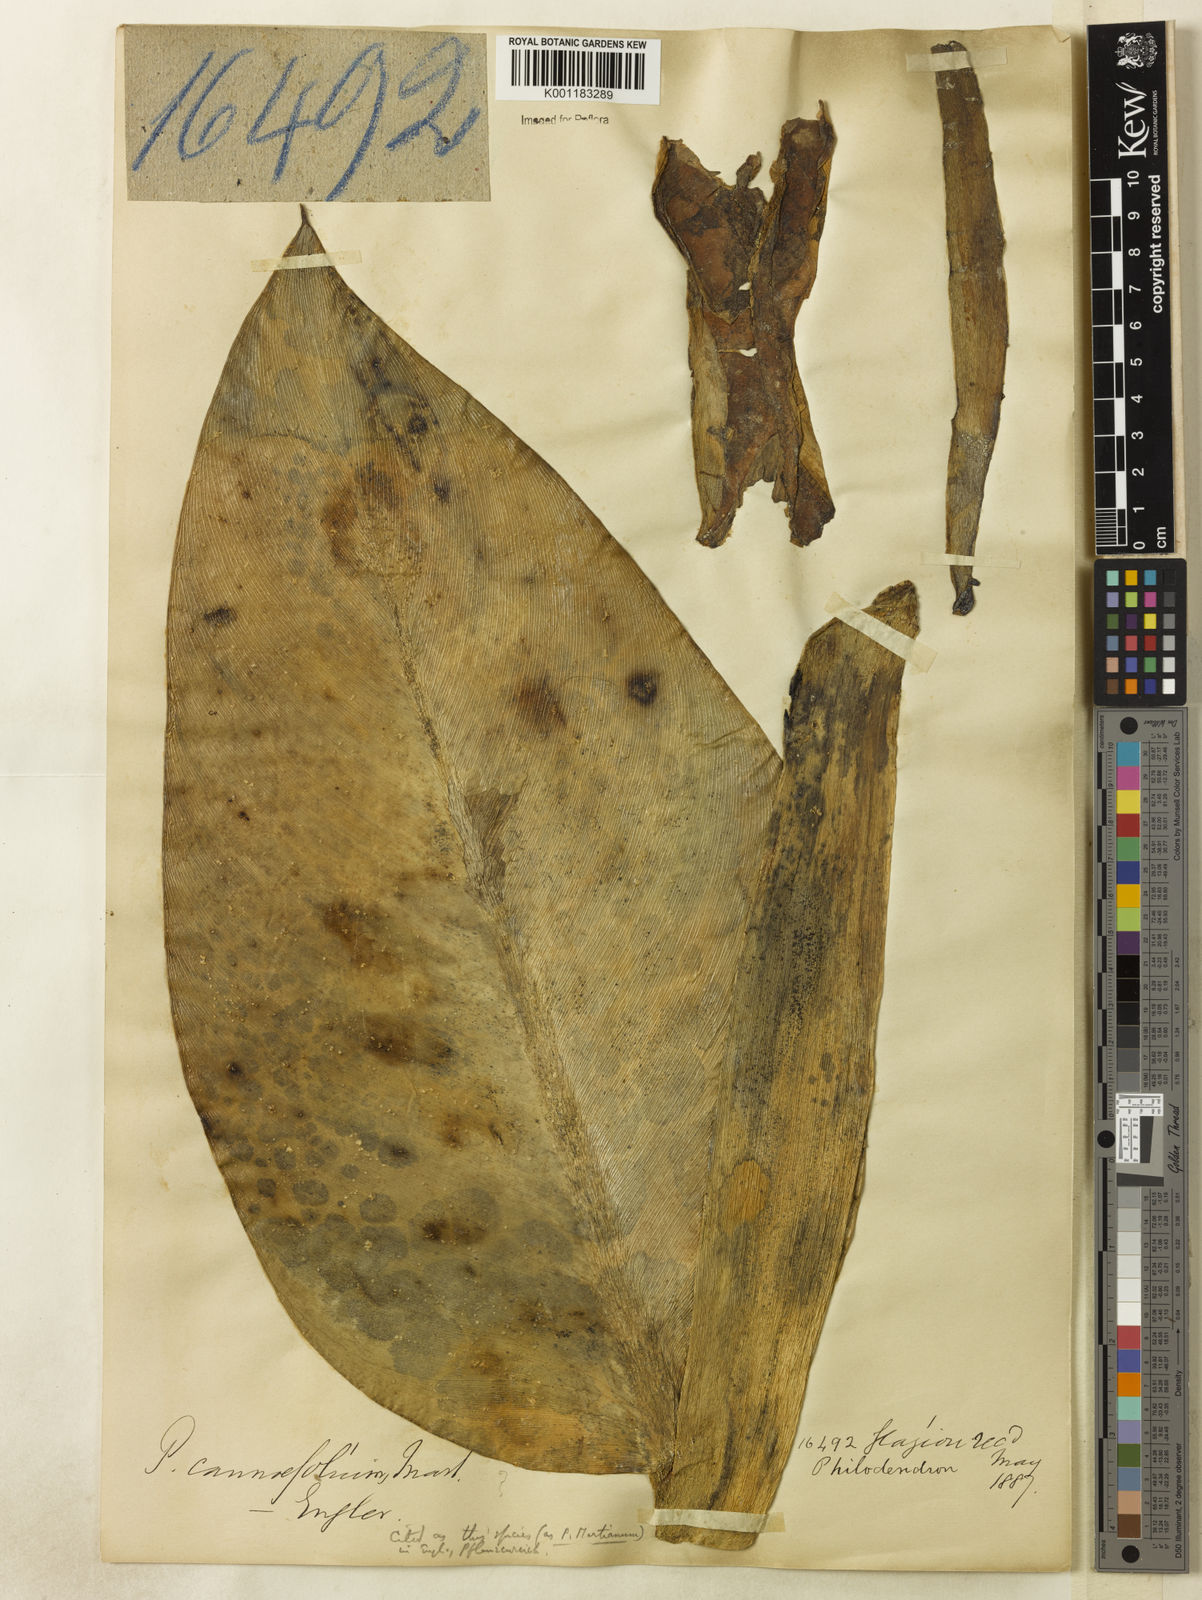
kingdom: Plantae
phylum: Tracheophyta
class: Liliopsida
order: Alismatales
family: Araceae
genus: Philodendron
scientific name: Philodendron martianum
